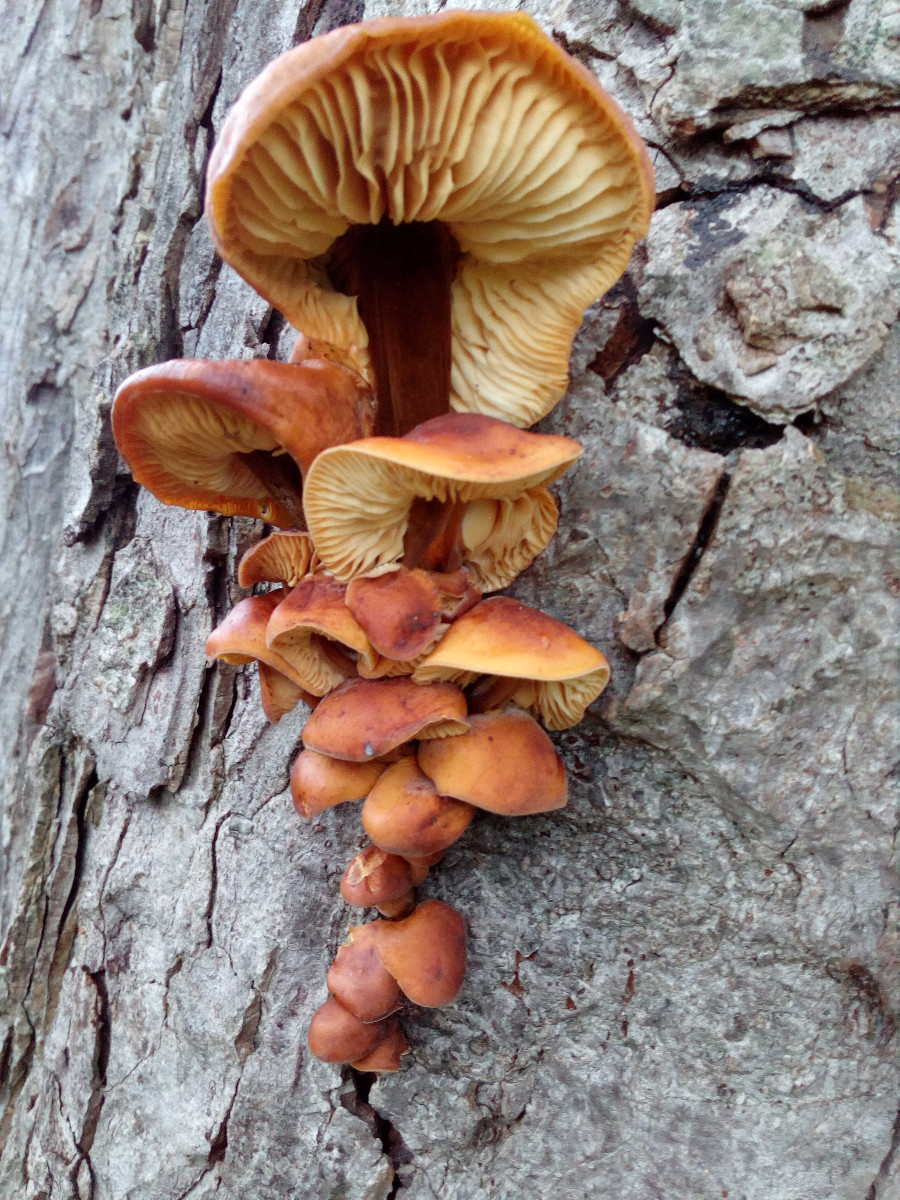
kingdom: Fungi
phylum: Basidiomycota
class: Agaricomycetes
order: Agaricales
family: Physalacriaceae
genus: Flammulina
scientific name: Flammulina velutipes
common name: gul fløjlsfod
